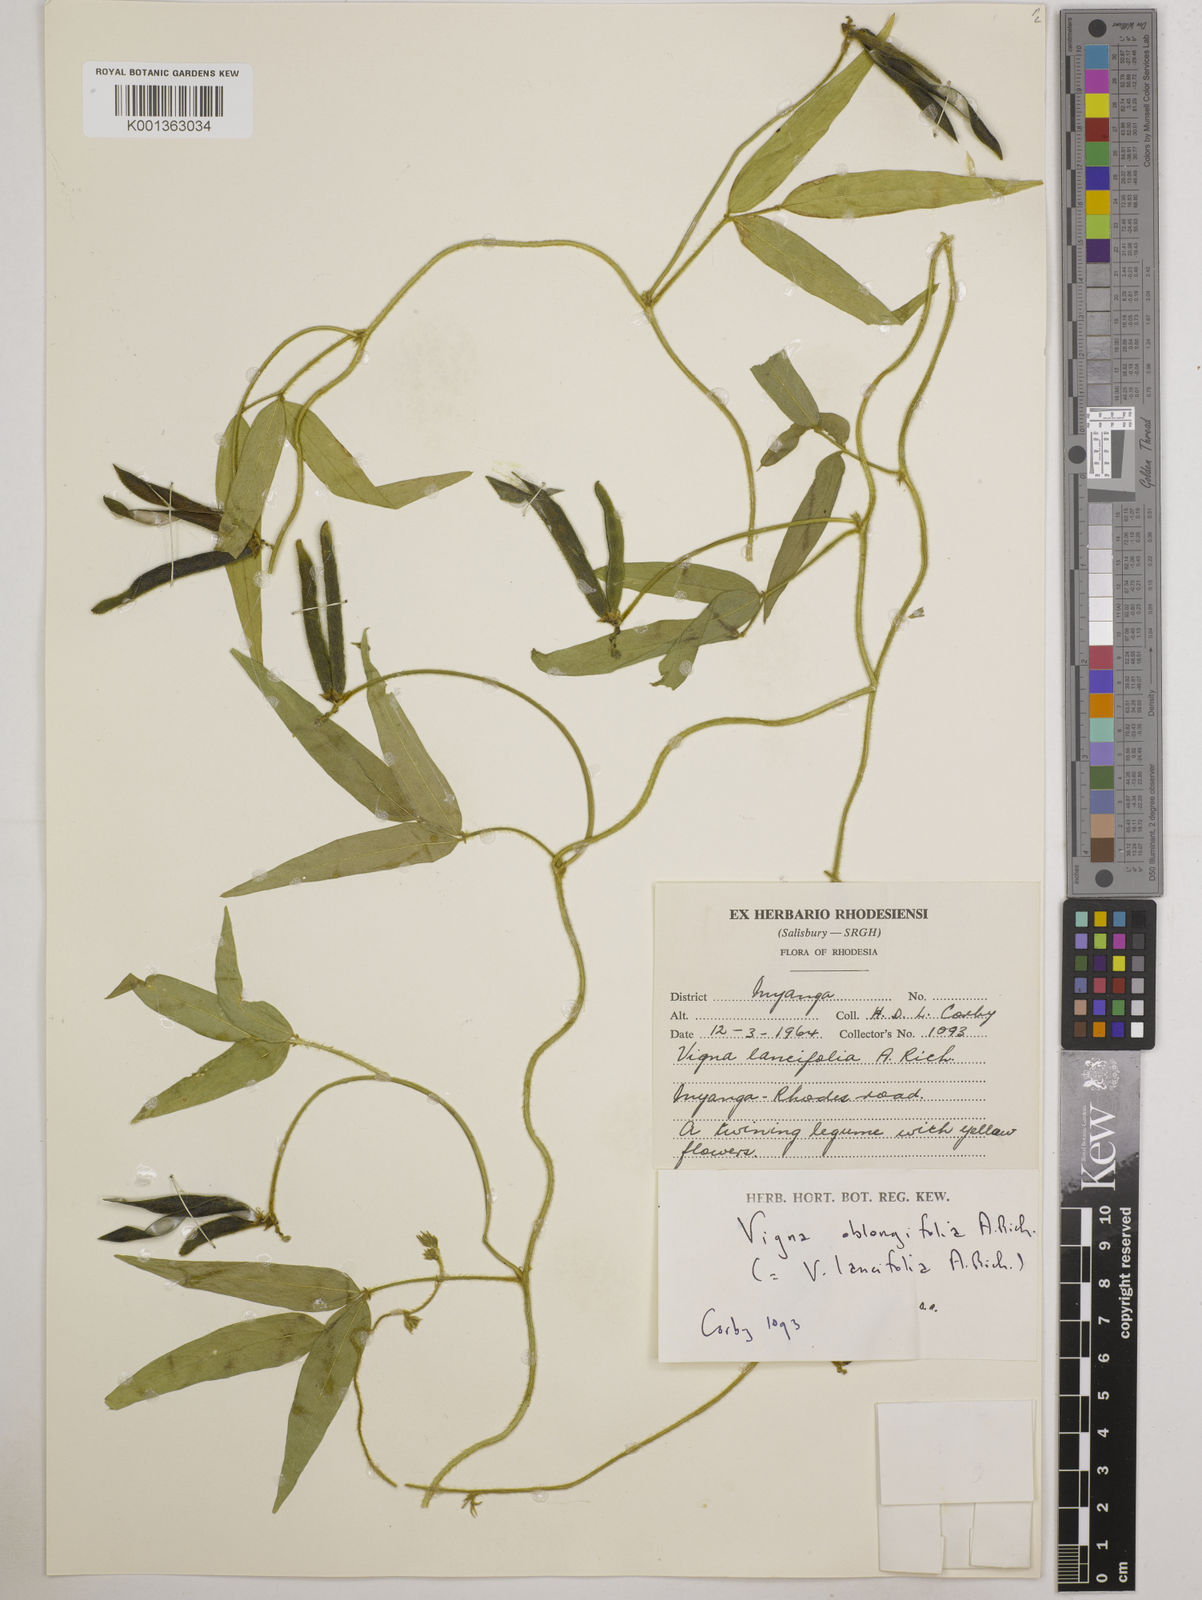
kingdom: Plantae
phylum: Tracheophyta
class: Magnoliopsida
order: Fabales
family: Fabaceae
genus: Vigna
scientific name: Vigna oblongifolia
